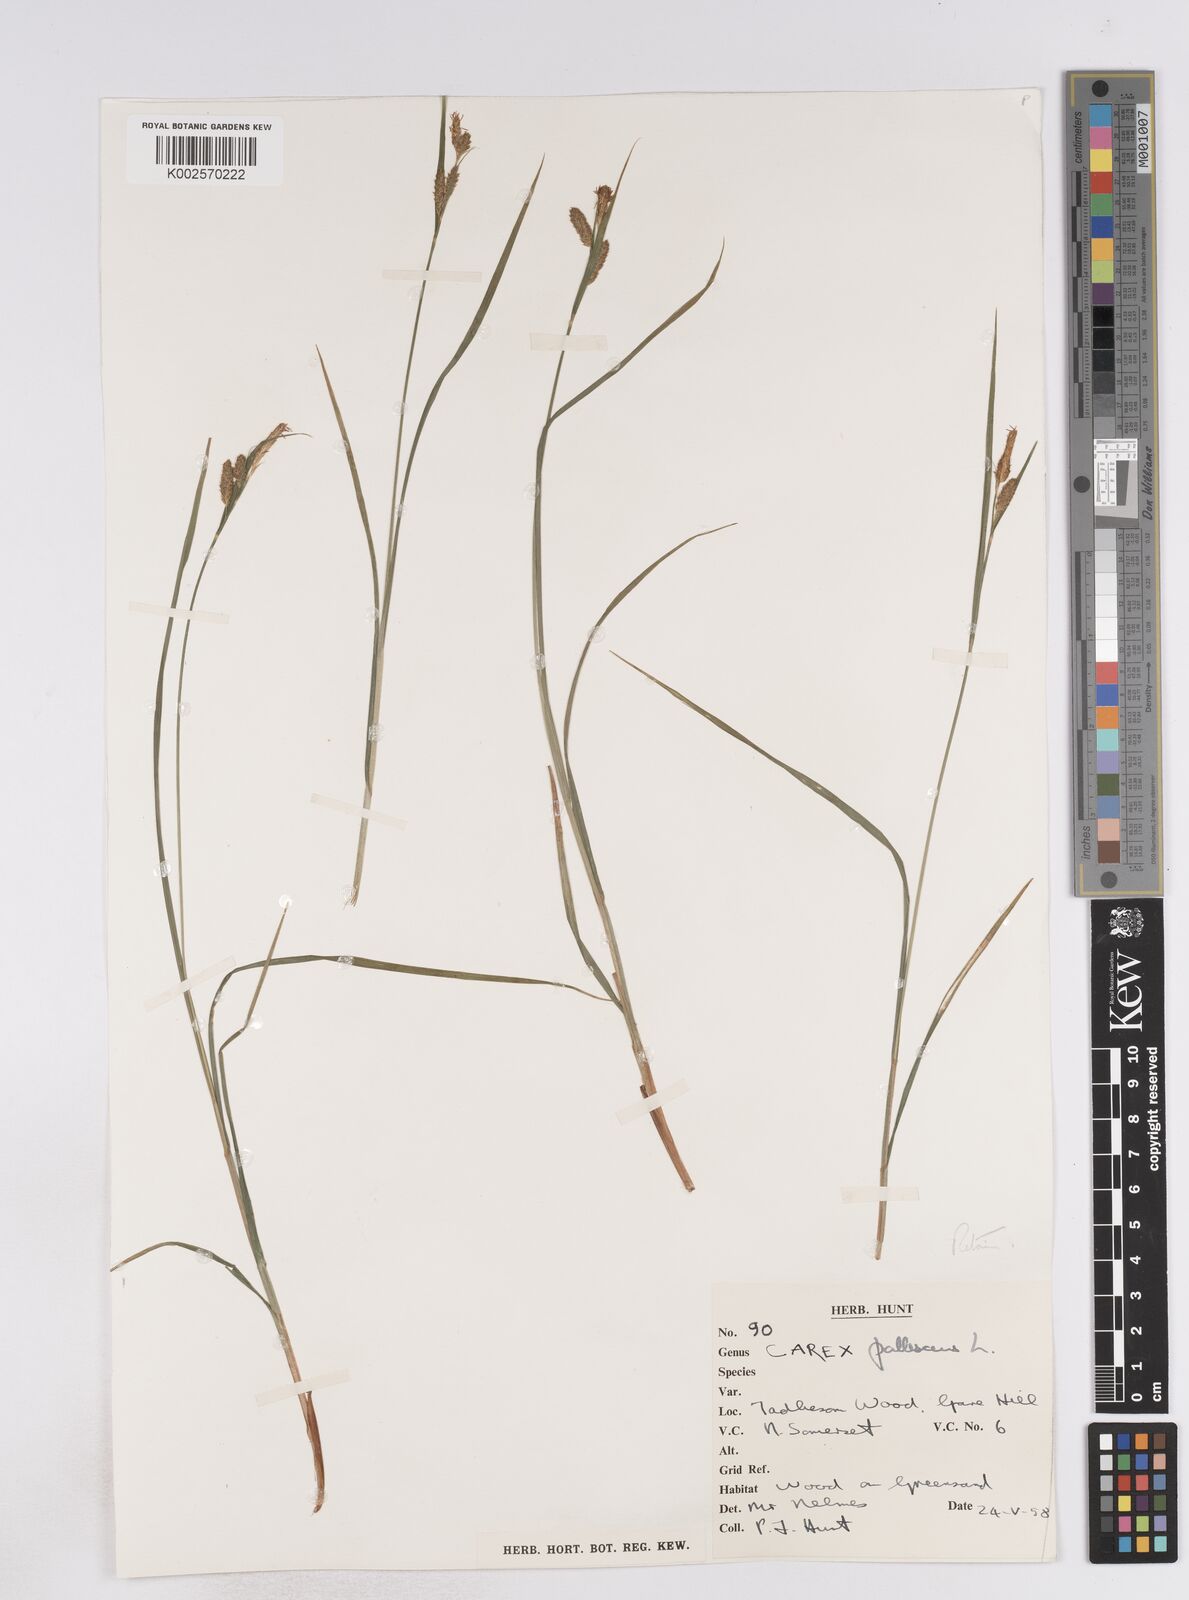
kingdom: Plantae
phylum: Tracheophyta
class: Liliopsida
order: Poales
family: Cyperaceae
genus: Carex
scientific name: Carex pallescens
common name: Pale sedge
